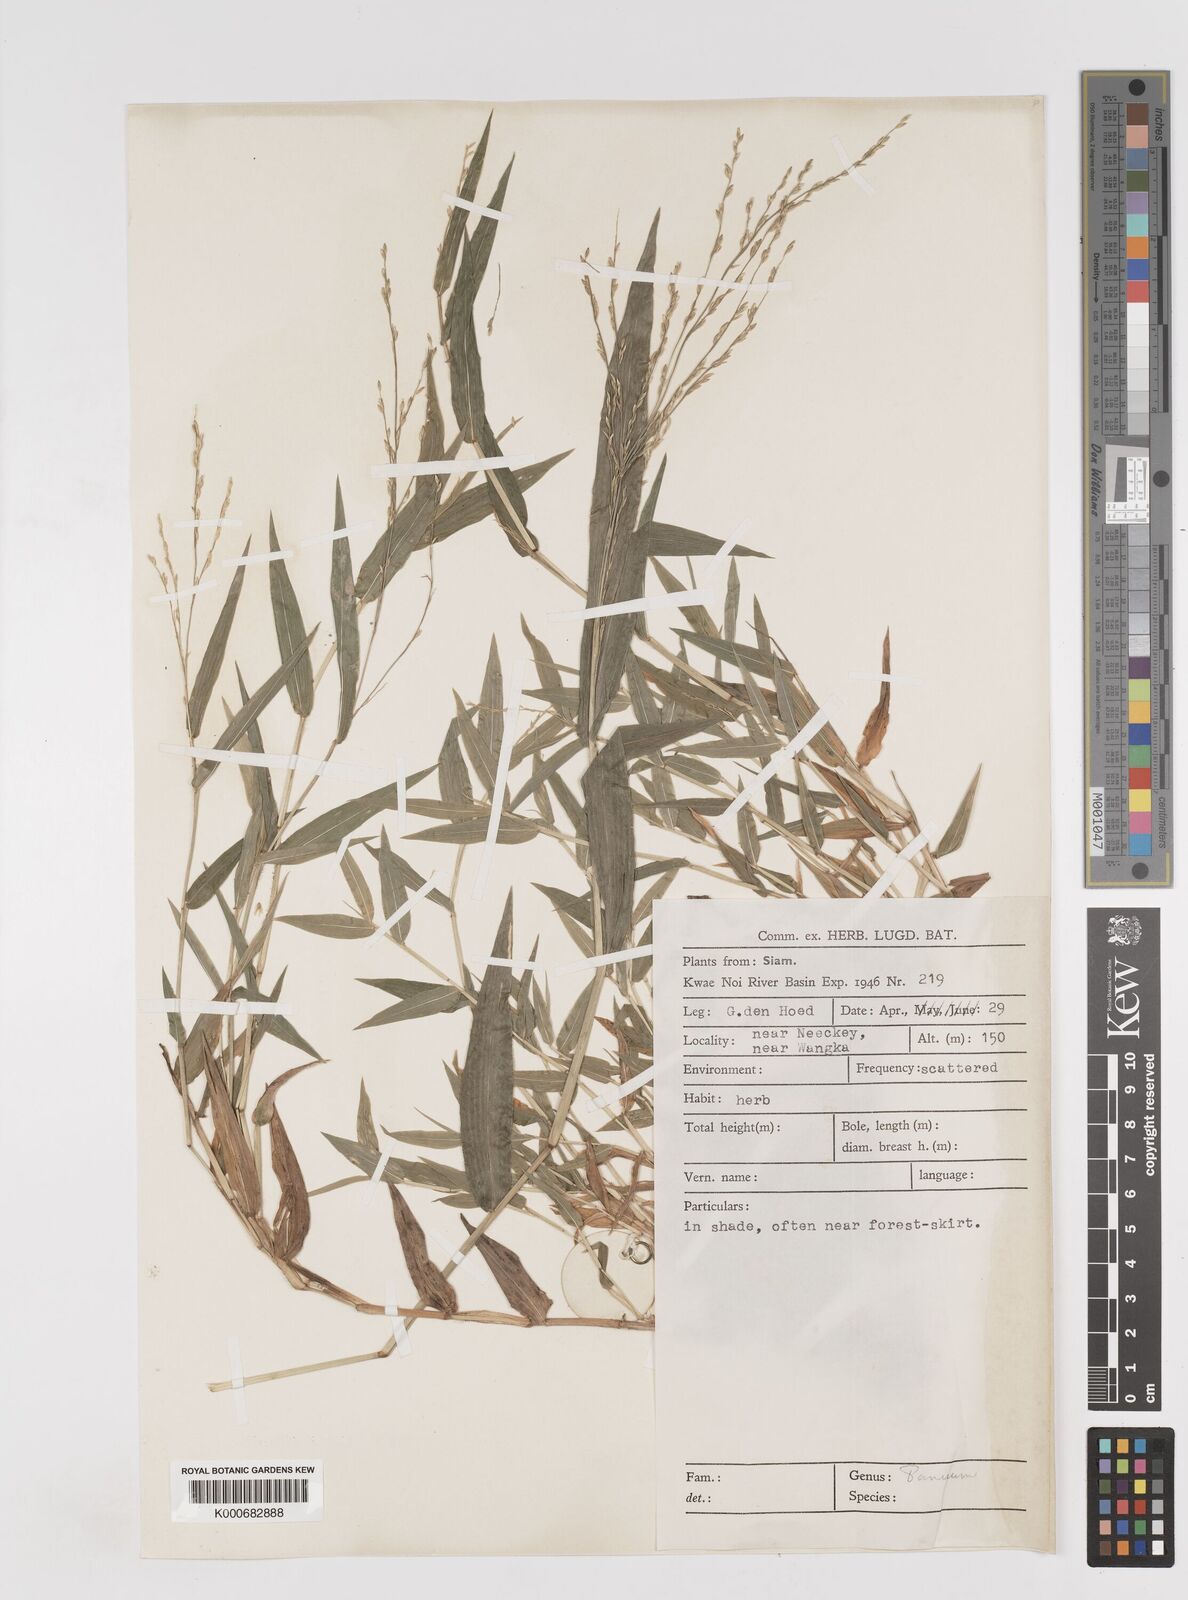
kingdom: Plantae
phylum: Tracheophyta
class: Liliopsida
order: Poales
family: Poaceae
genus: Ottochloa
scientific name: Ottochloa nodosa
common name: Slender-panic grass
